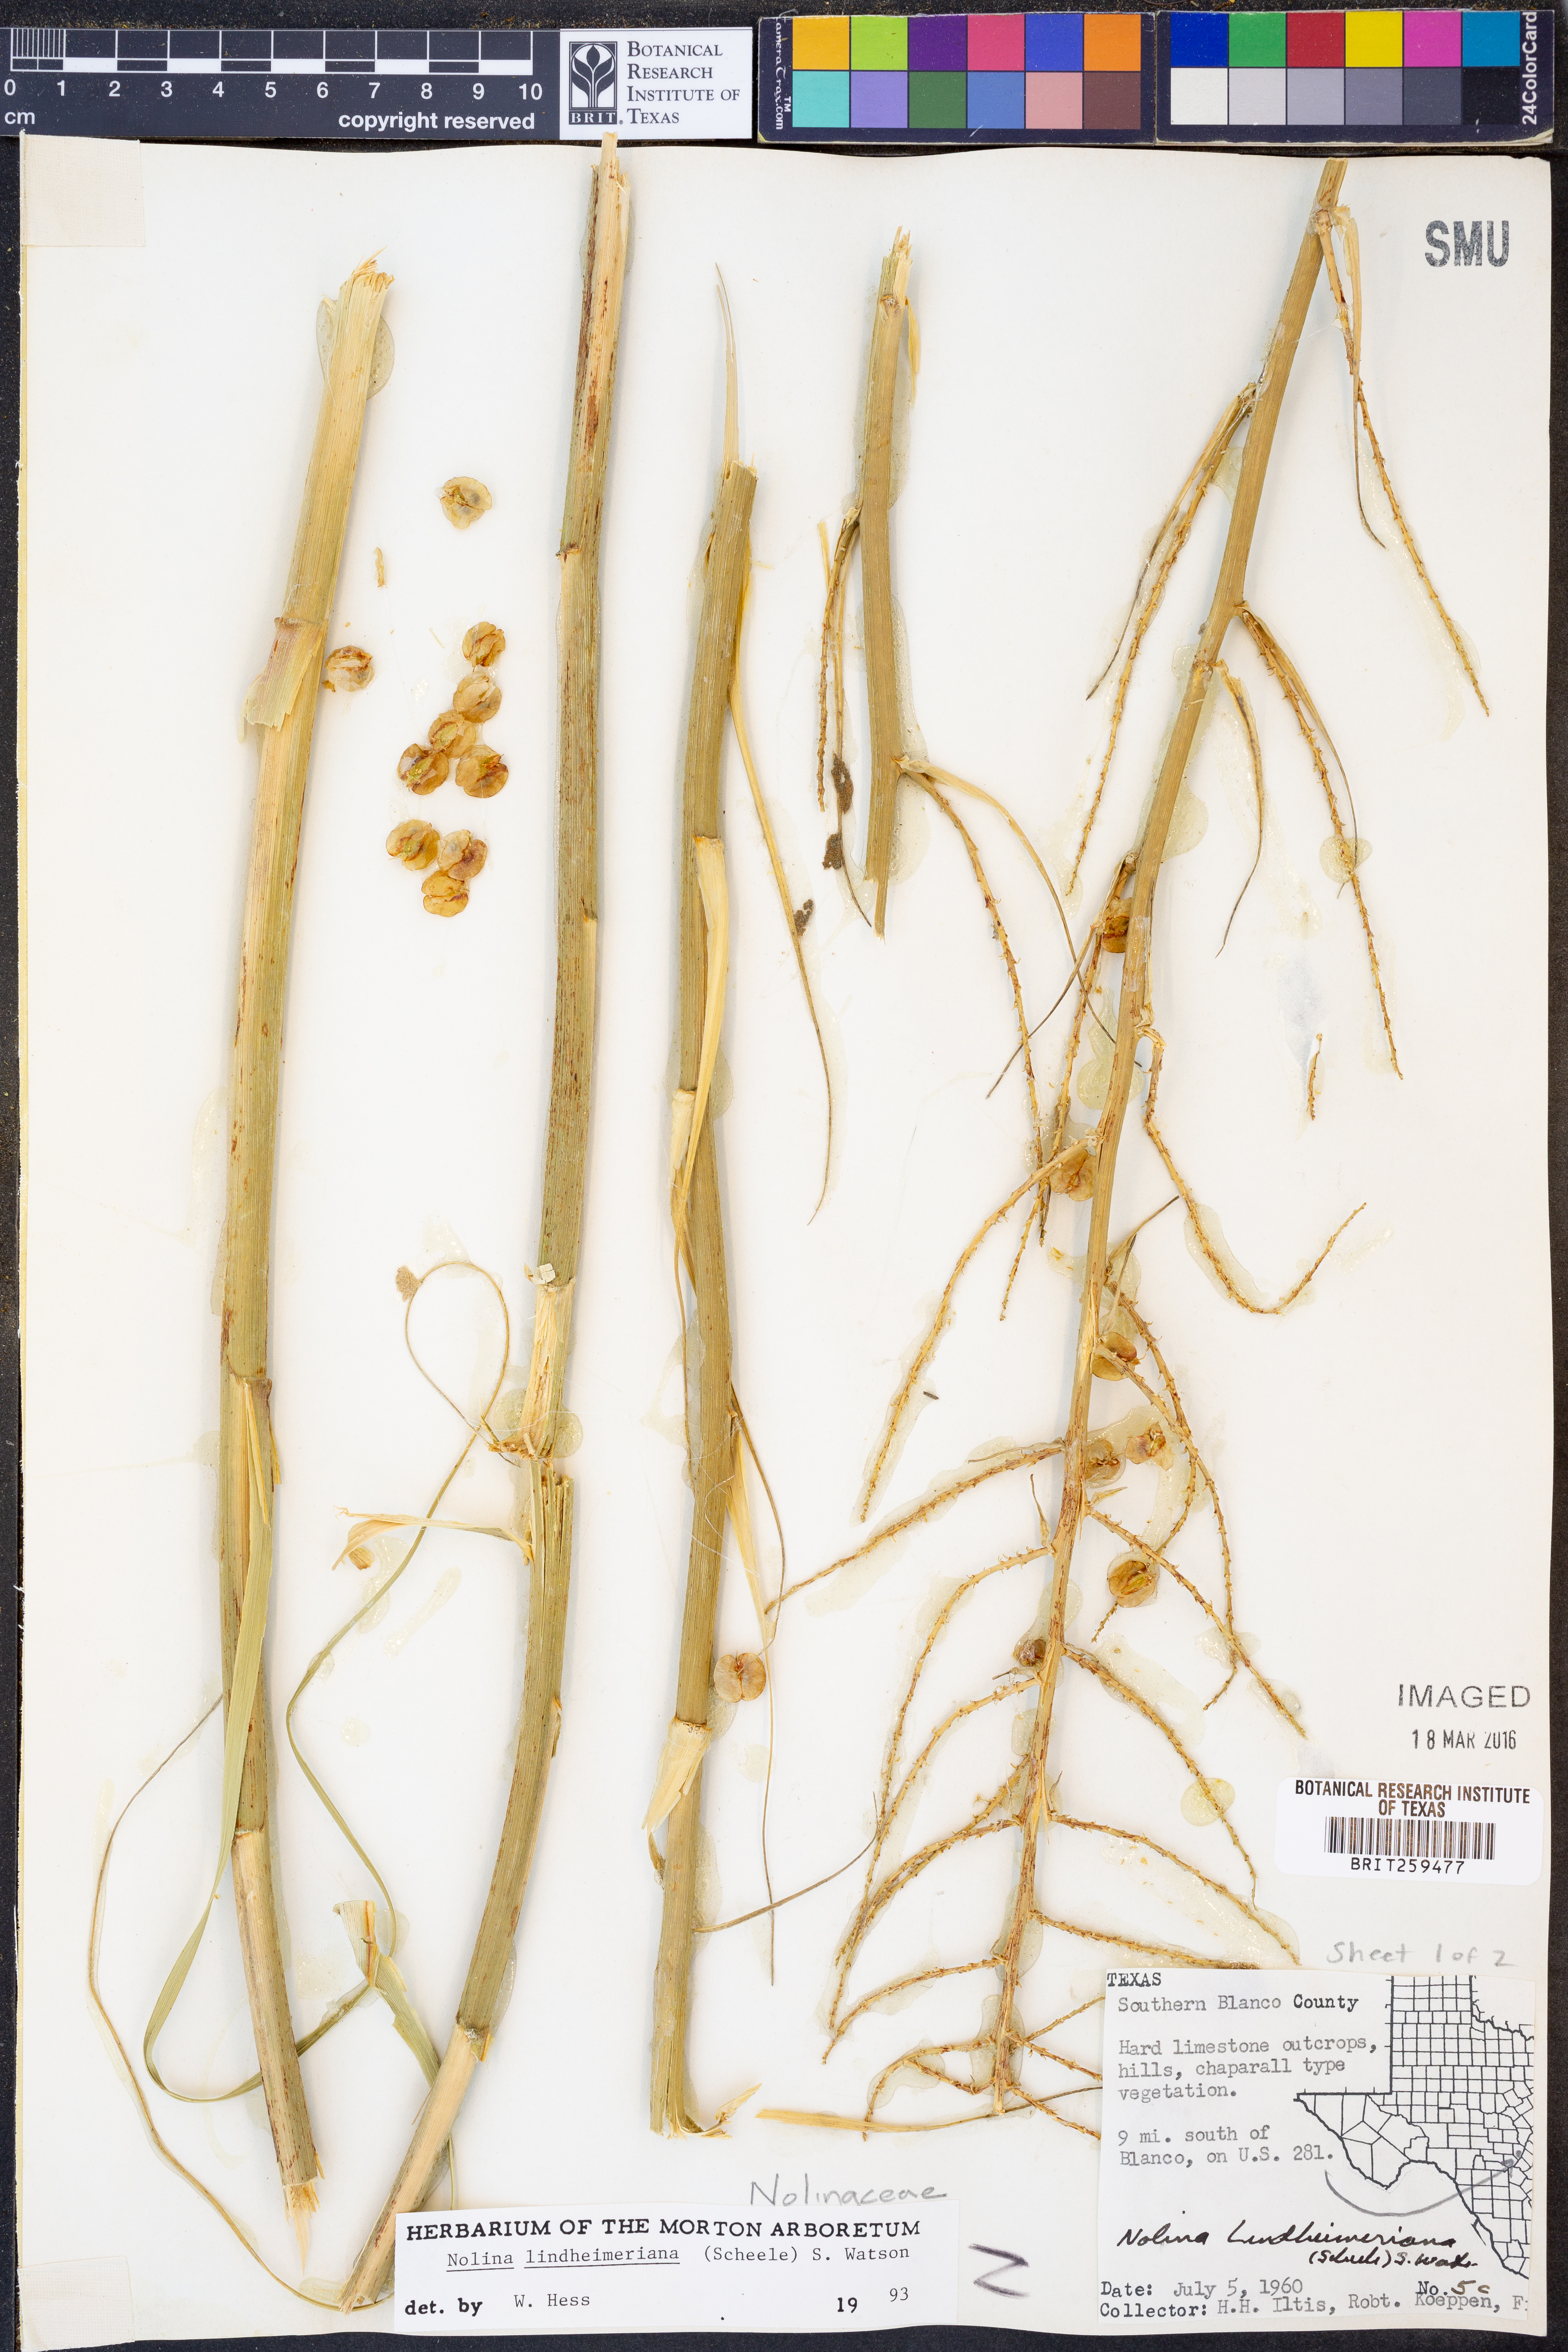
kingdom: Plantae
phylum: Tracheophyta
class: Liliopsida
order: Asparagales
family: Asparagaceae
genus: Nolina
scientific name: Nolina lindheimeriana
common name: Lindheimer's bear-grass
